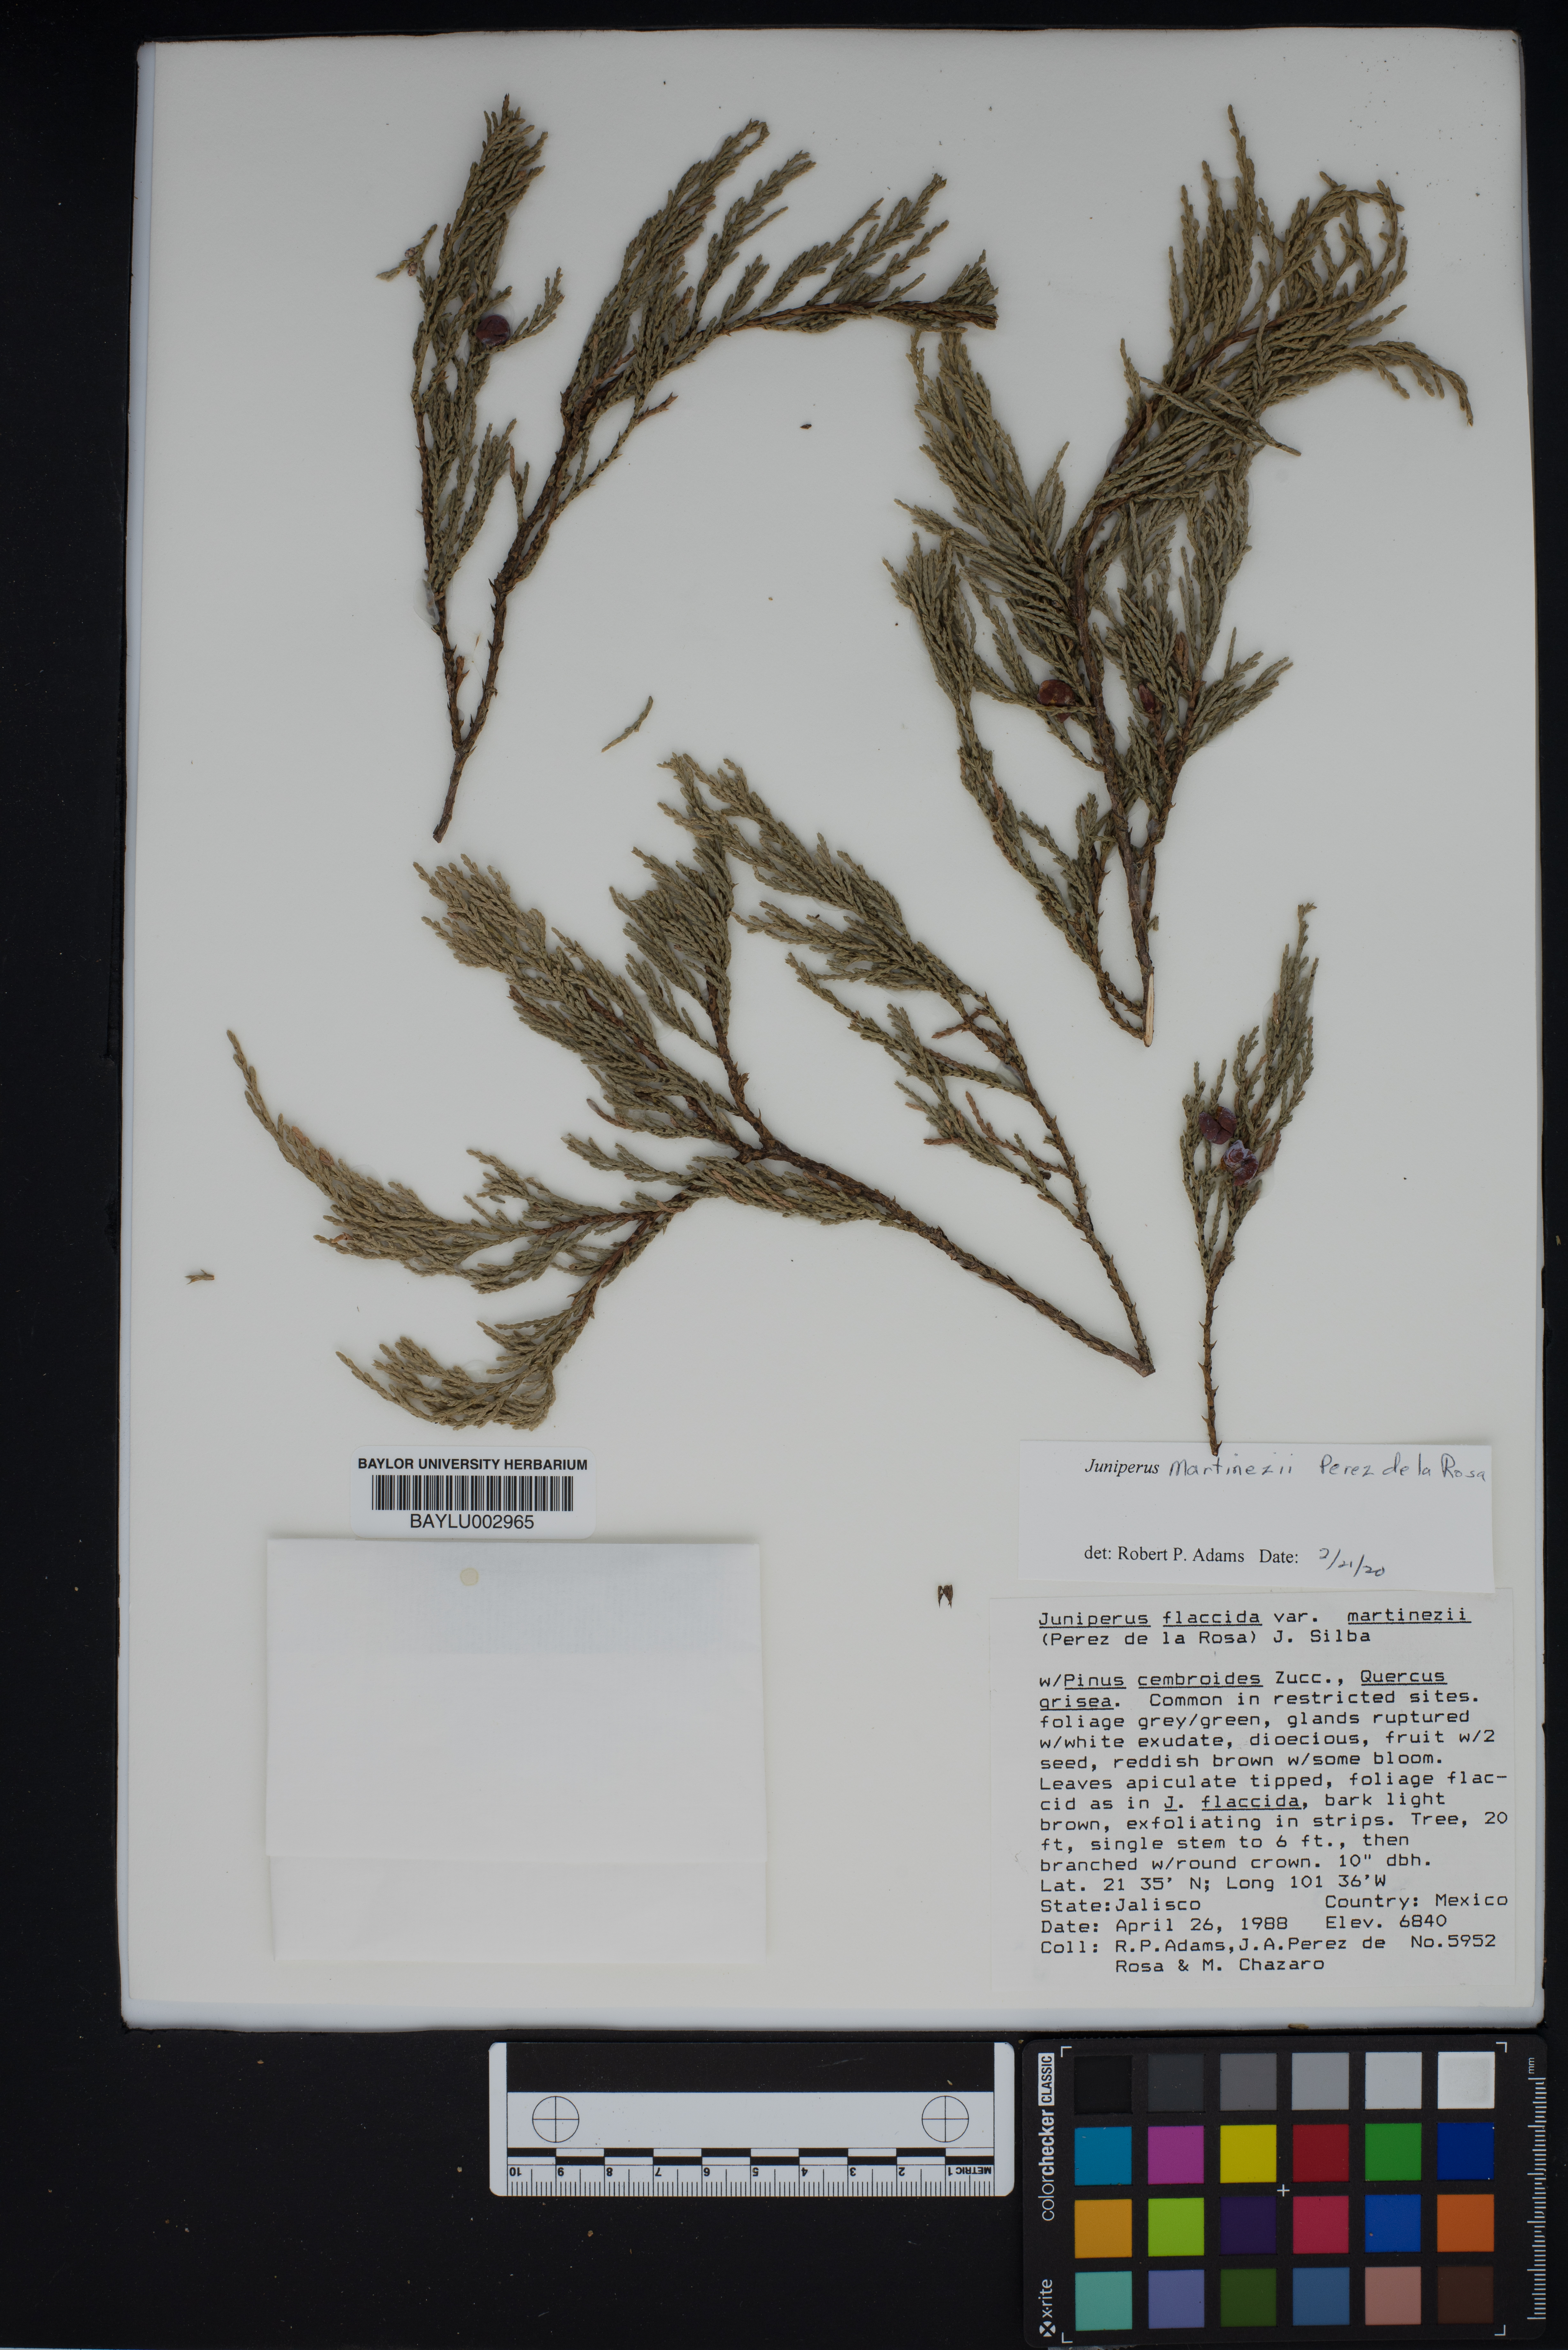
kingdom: Plantae
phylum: Tracheophyta
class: Pinopsida
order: Pinales
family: Cupressaceae
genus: Juniperus
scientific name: Juniperus flaccida
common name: Drooping juniper
